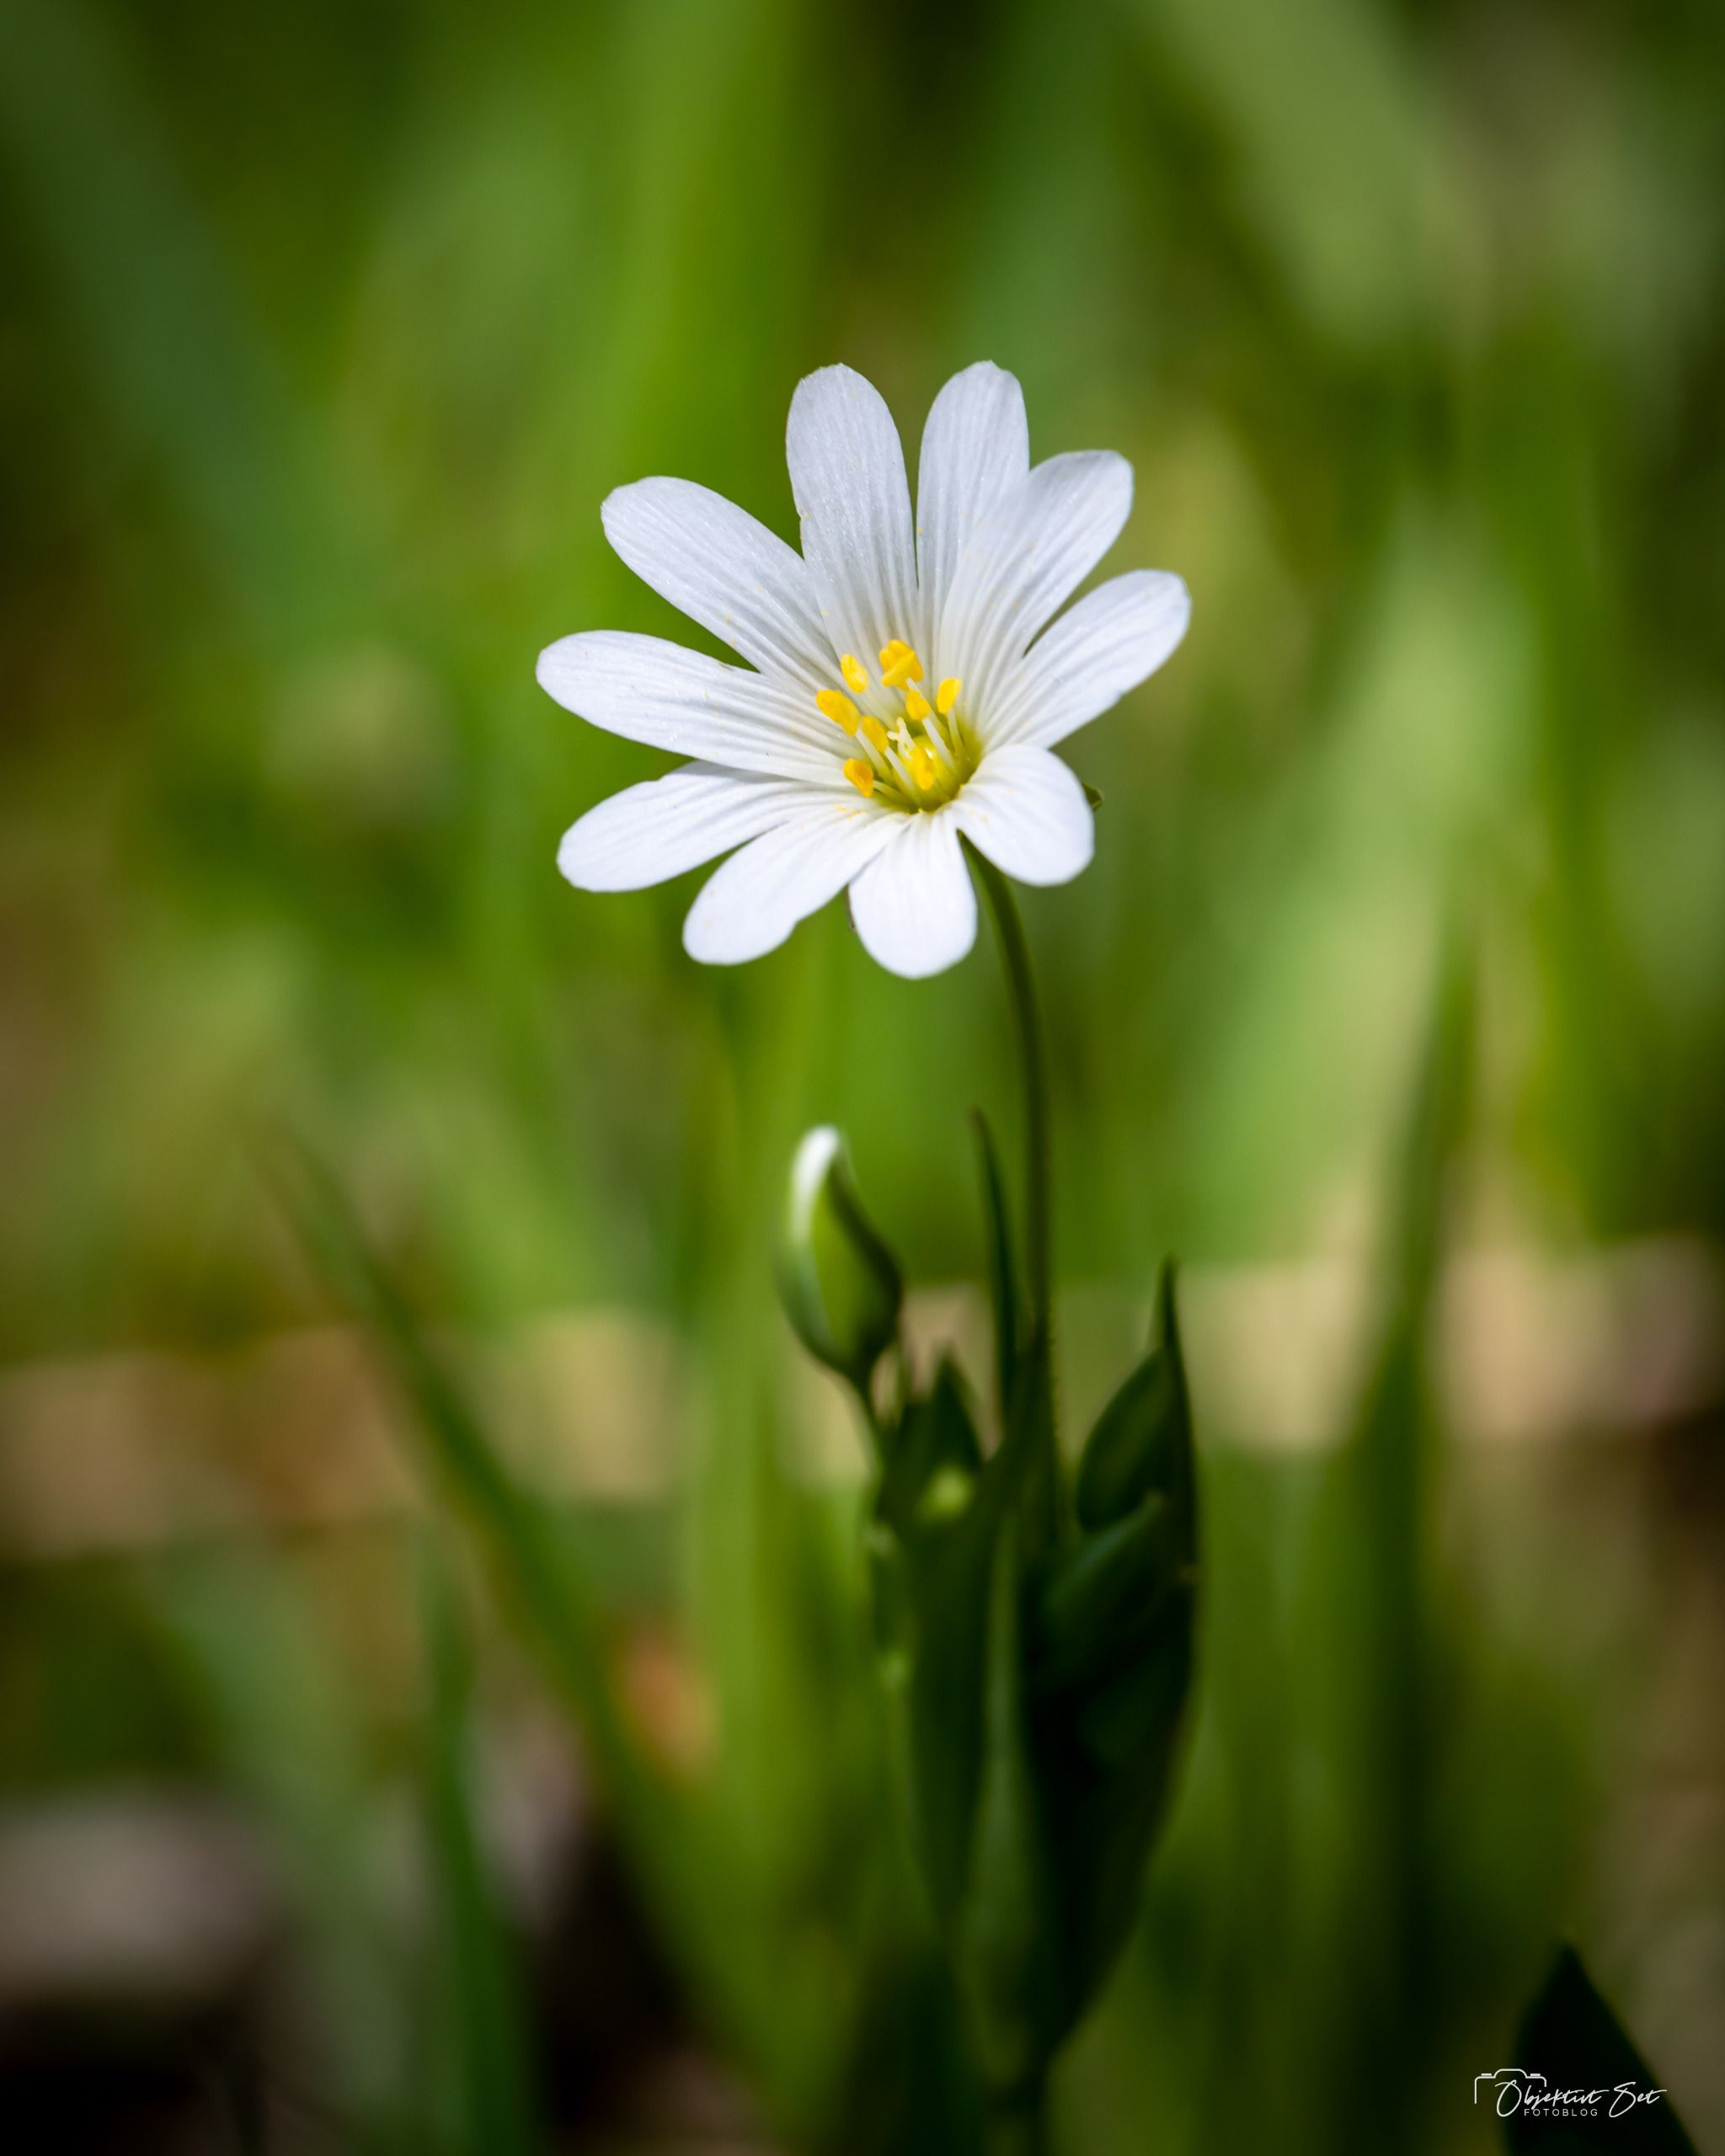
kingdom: Plantae
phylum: Tracheophyta
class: Magnoliopsida
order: Caryophyllales
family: Caryophyllaceae
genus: Rabelera
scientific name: Rabelera holostea
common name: Stor fladstjerne
